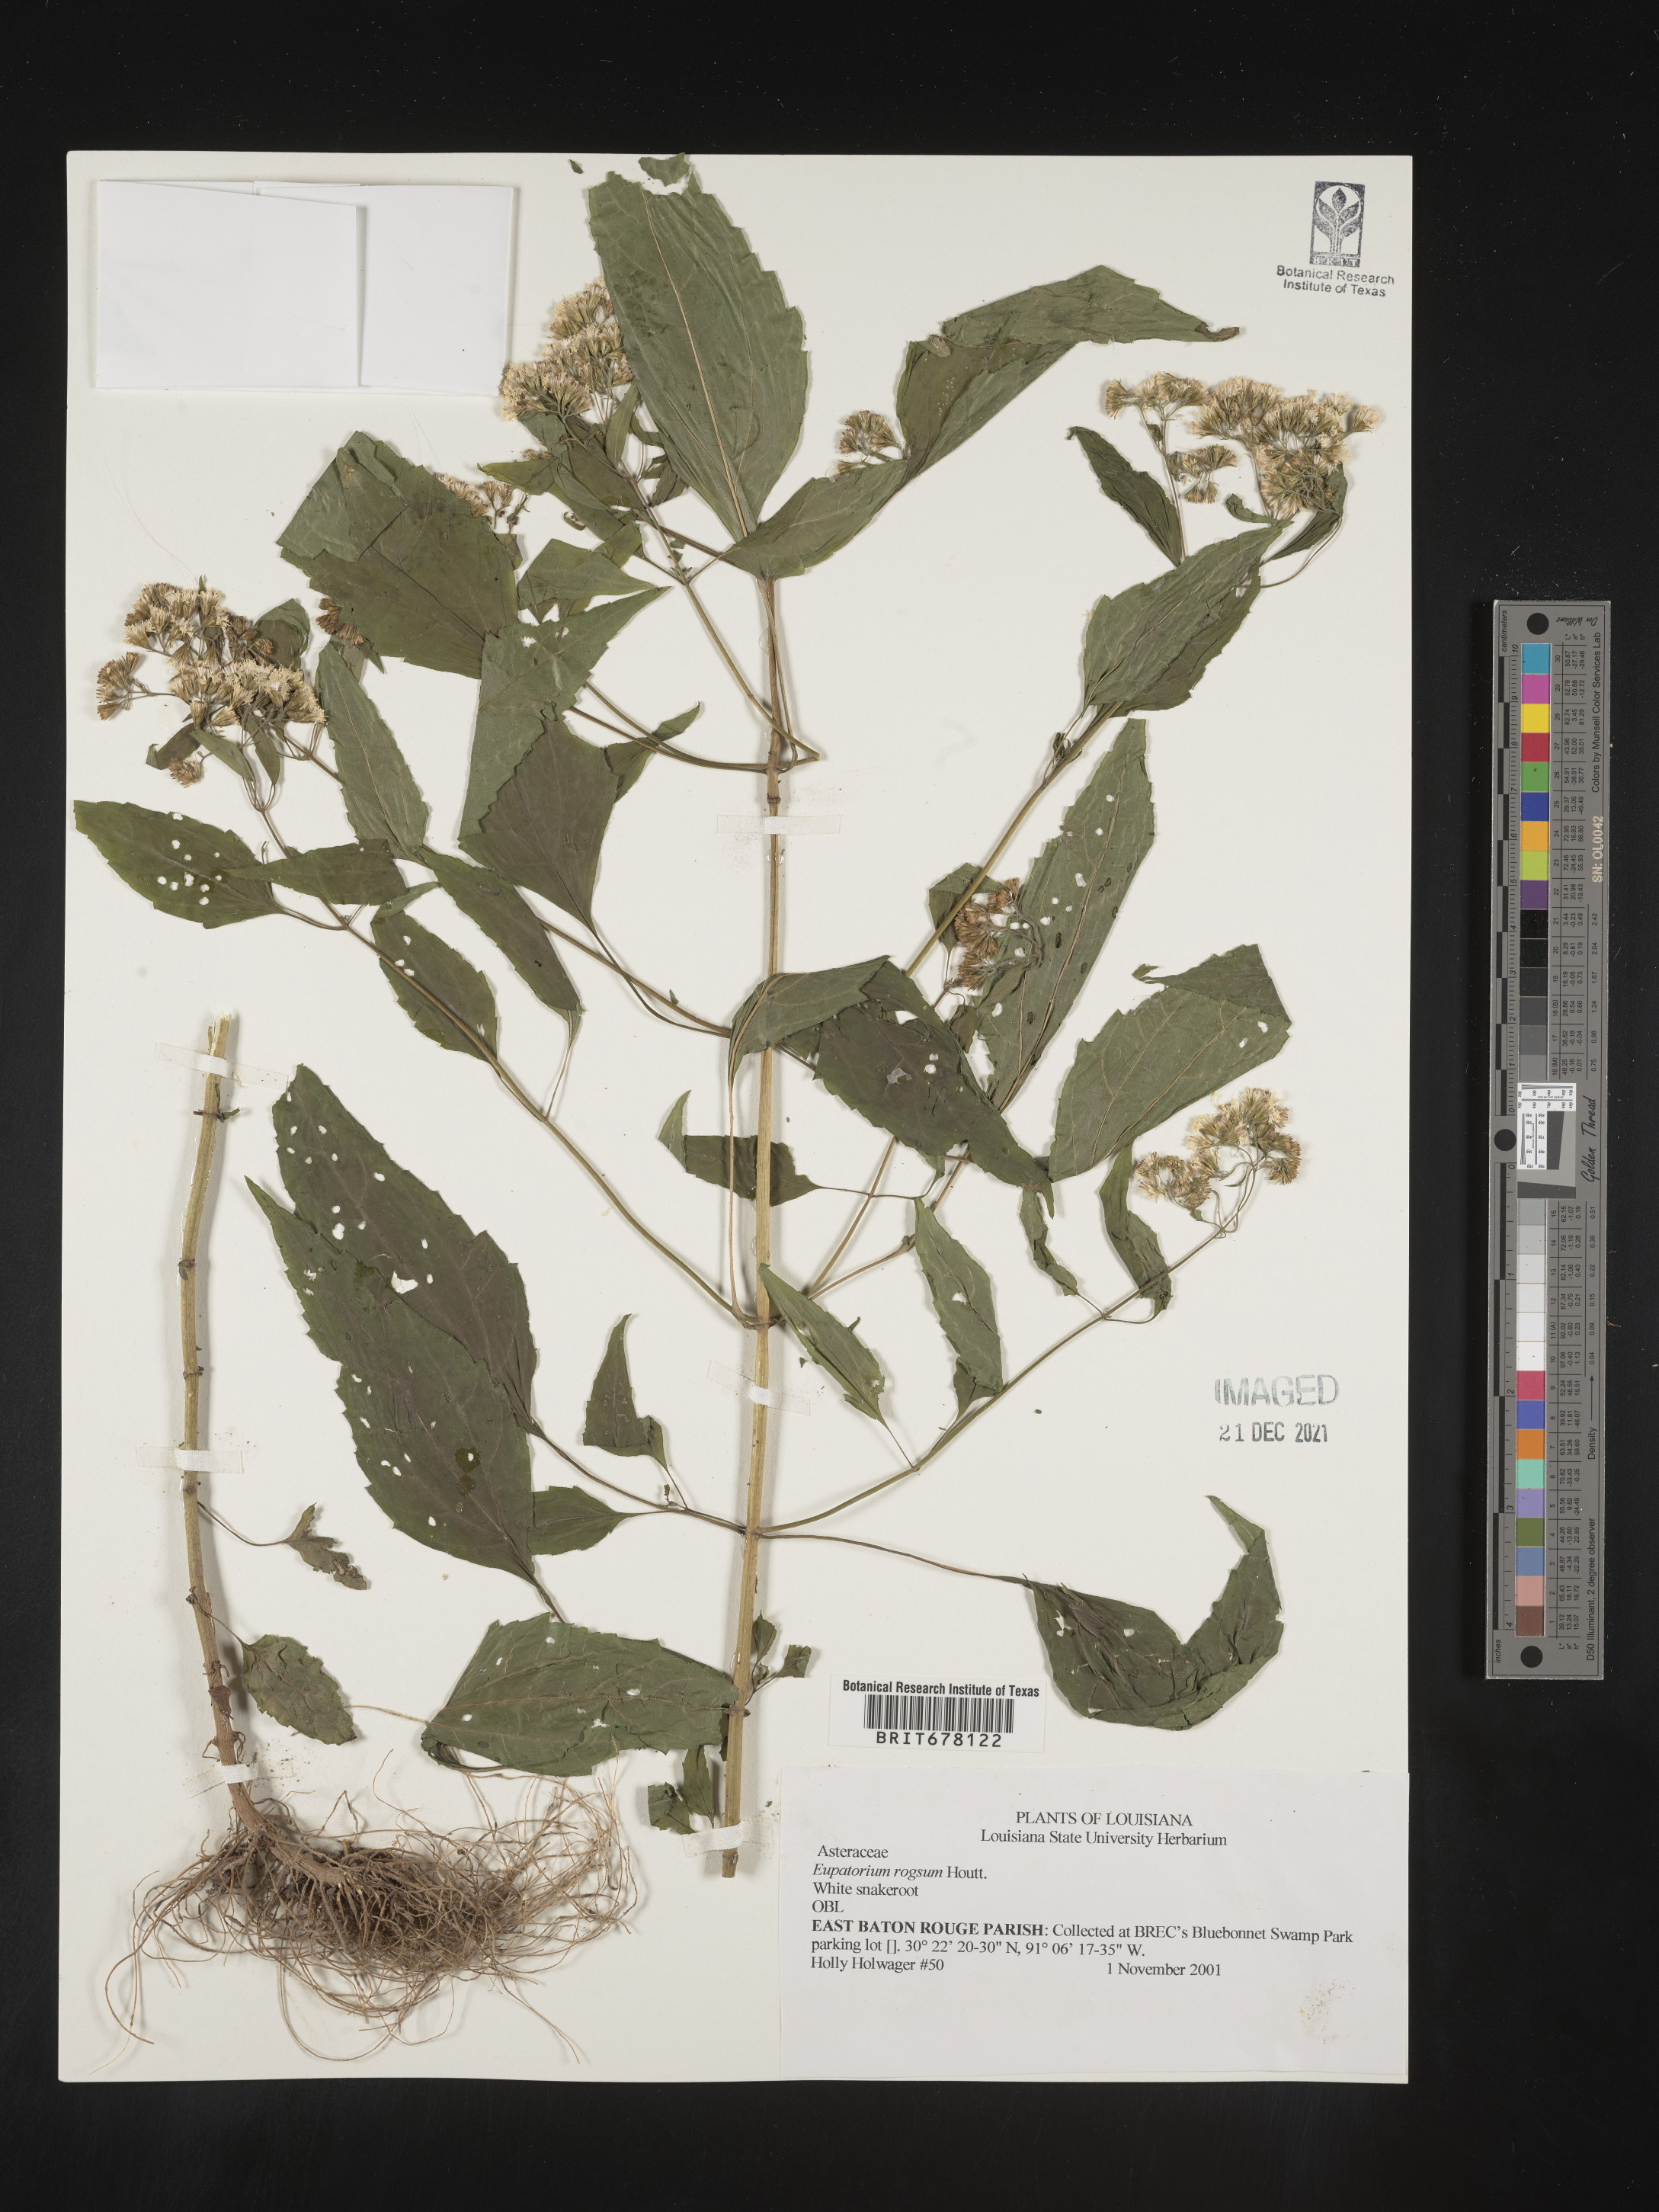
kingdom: Plantae
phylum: Tracheophyta
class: Magnoliopsida
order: Asterales
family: Asteraceae
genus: Eupatorium
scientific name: Eupatorium
